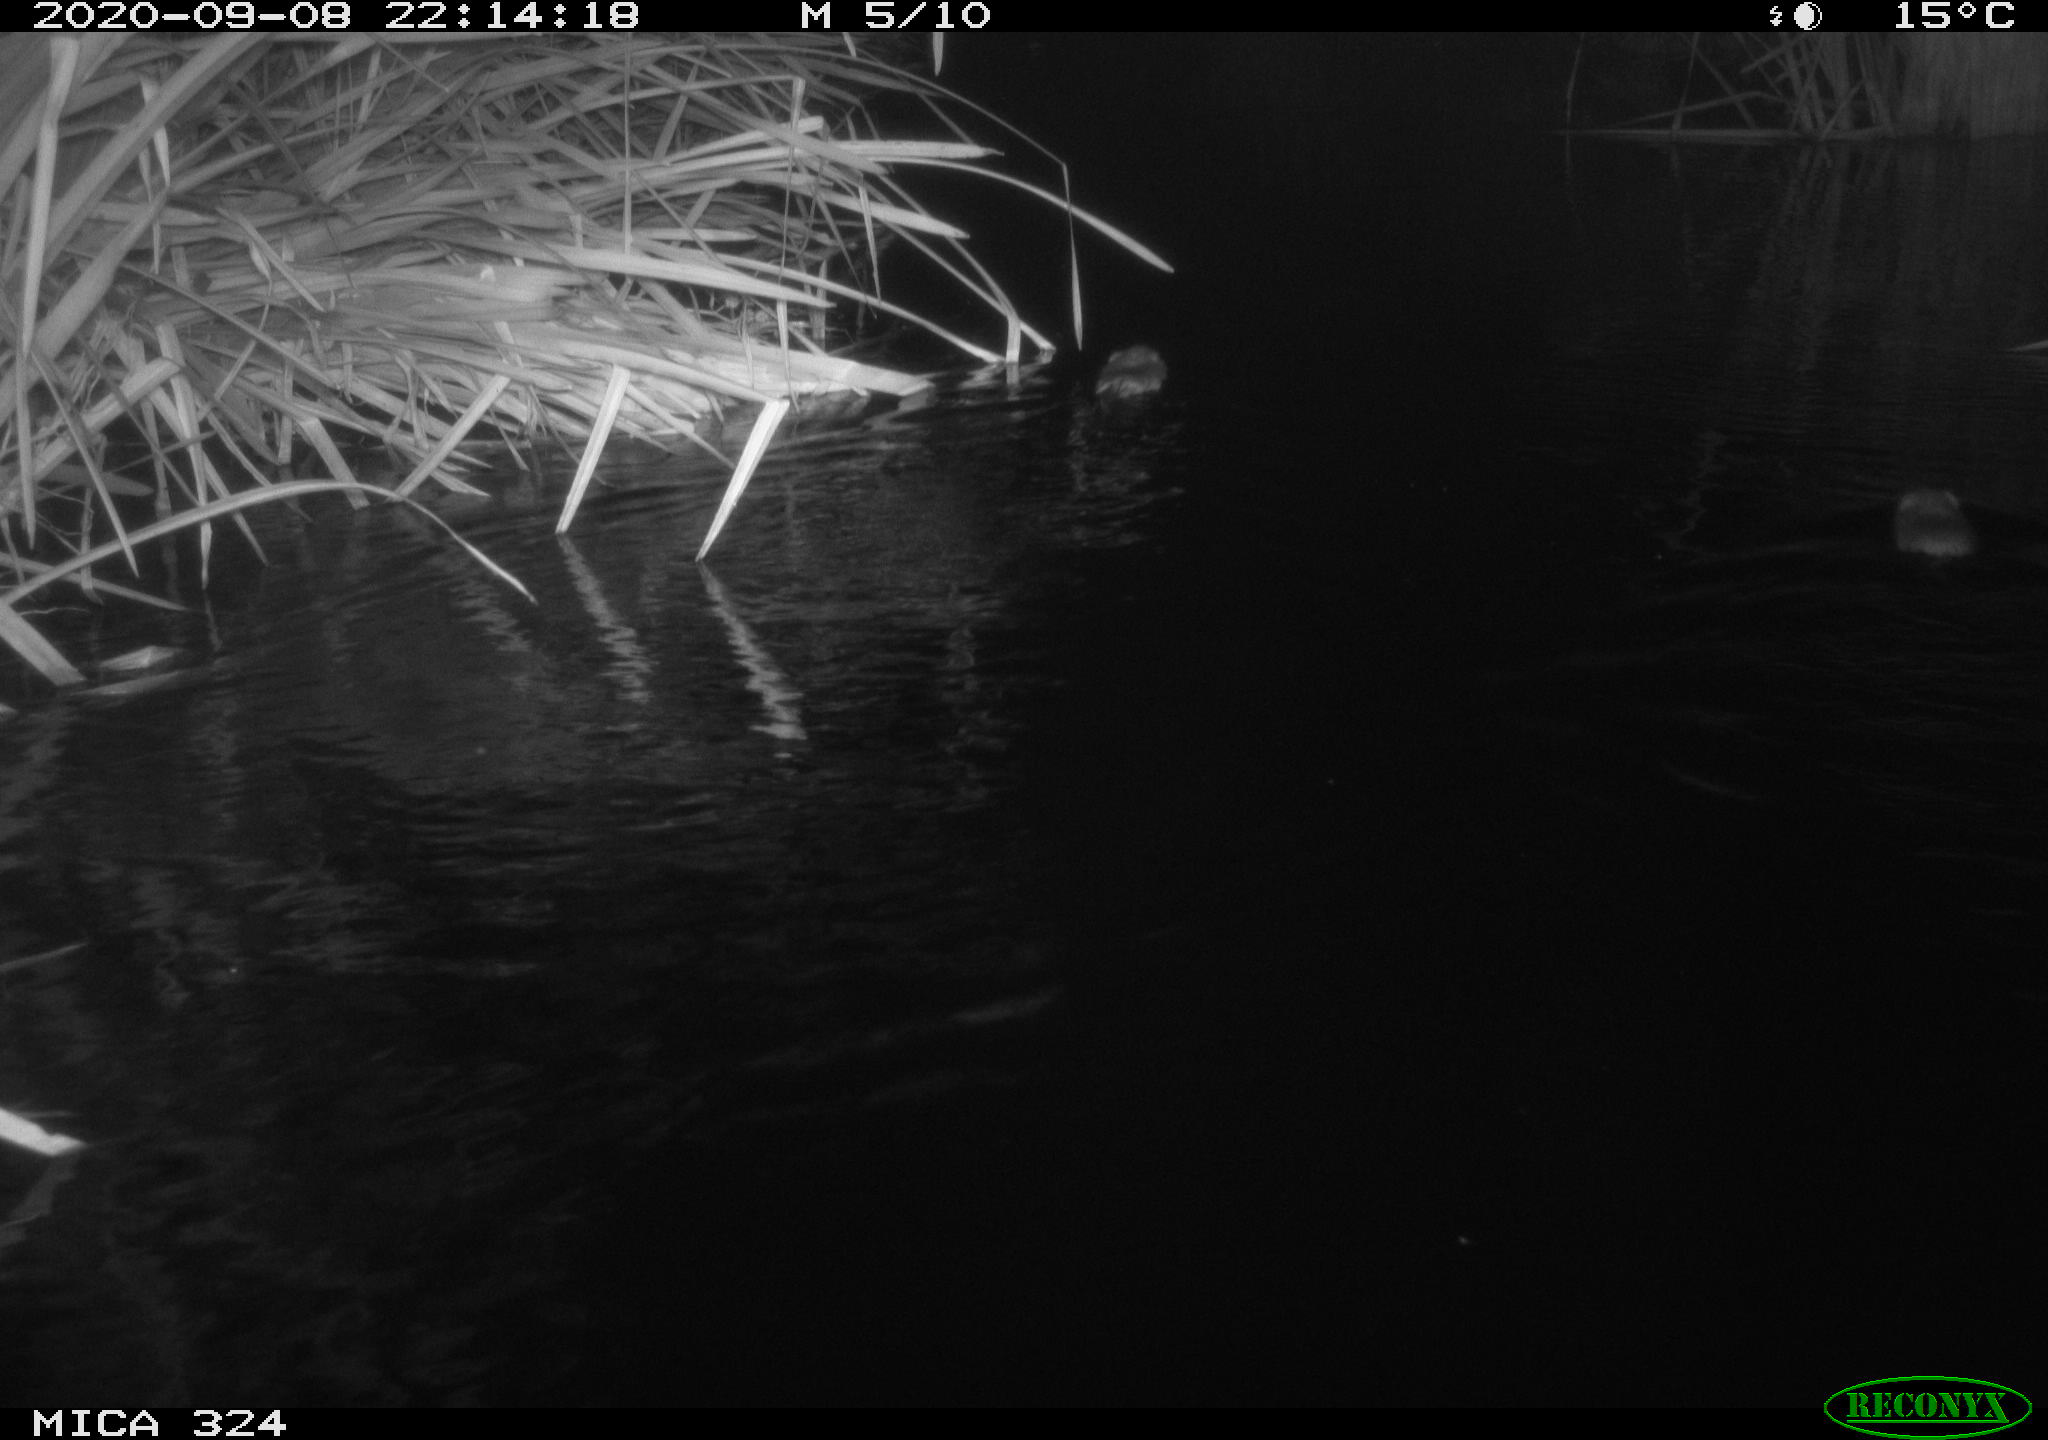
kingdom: Animalia
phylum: Chordata
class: Mammalia
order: Rodentia
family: Cricetidae
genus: Ondatra
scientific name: Ondatra zibethicus
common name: Muskrat
